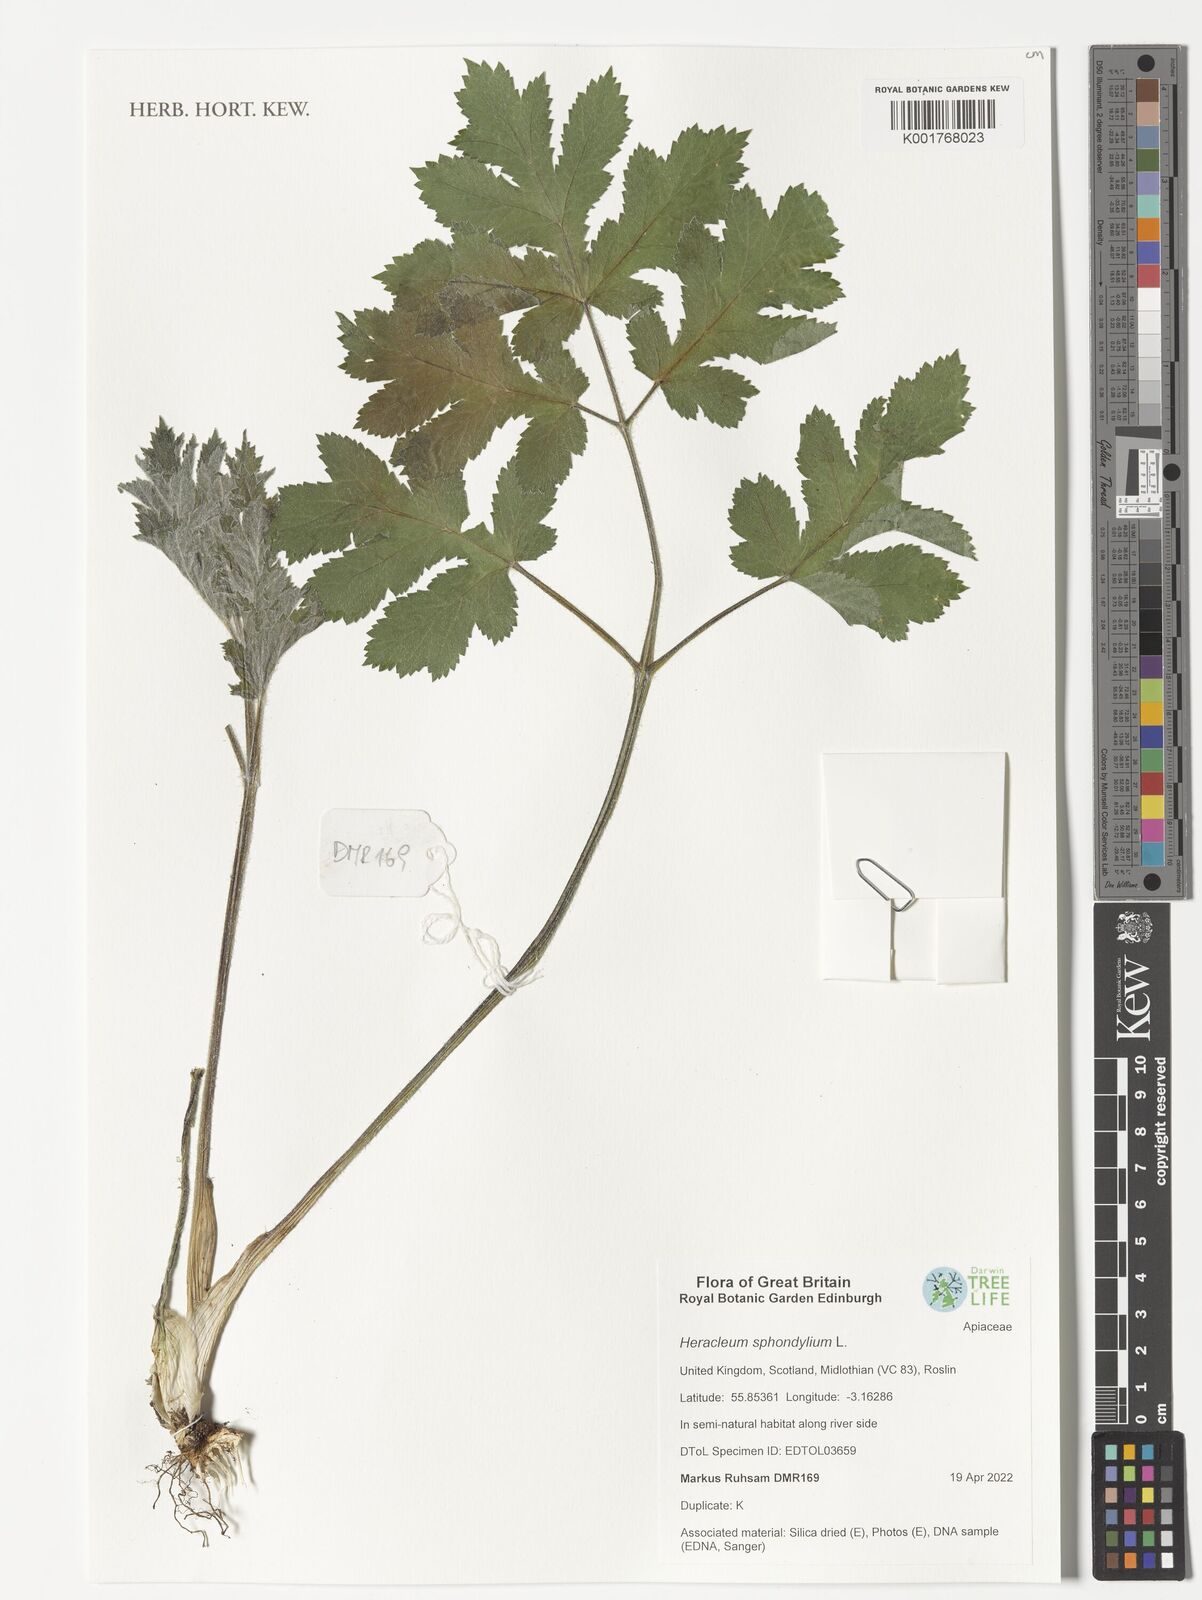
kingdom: Plantae
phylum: Tracheophyta
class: Magnoliopsida
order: Apiales
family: Apiaceae
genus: Heracleum
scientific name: Heracleum sphondylium
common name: Hogweed
